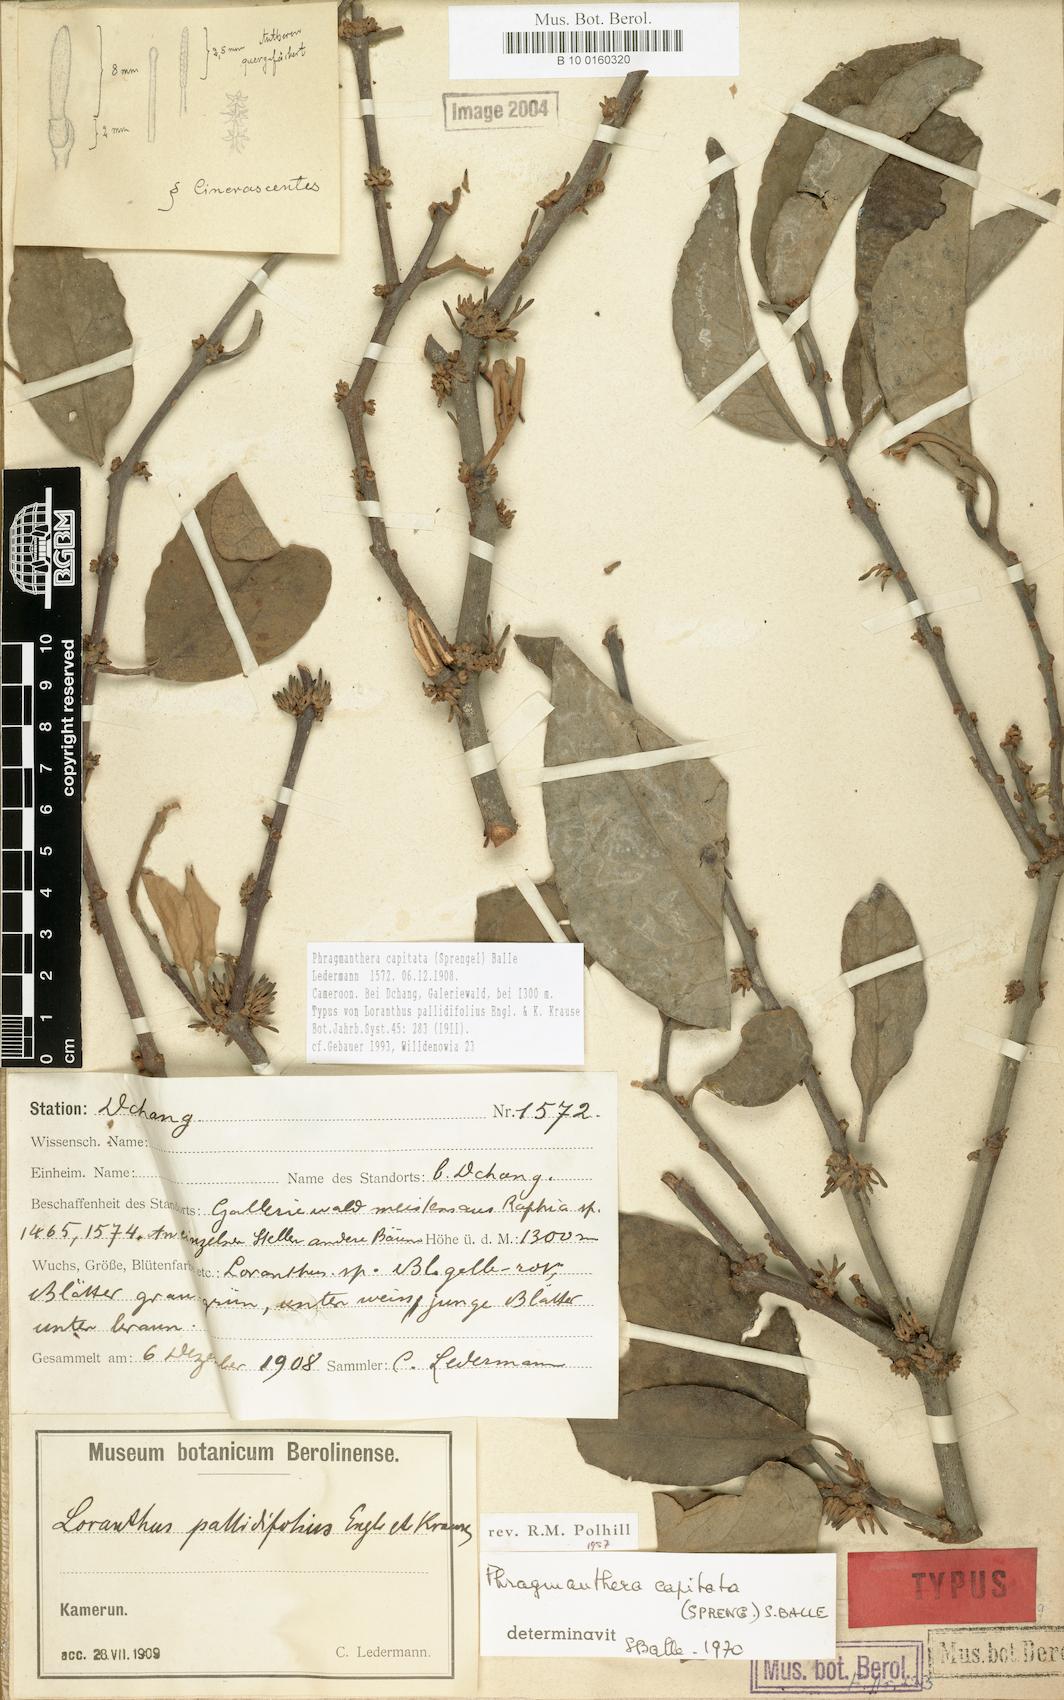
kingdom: Plantae
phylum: Tracheophyta
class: Magnoliopsida
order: Santalales
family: Loranthaceae
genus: Phragmanthera
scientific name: Phragmanthera capitata
